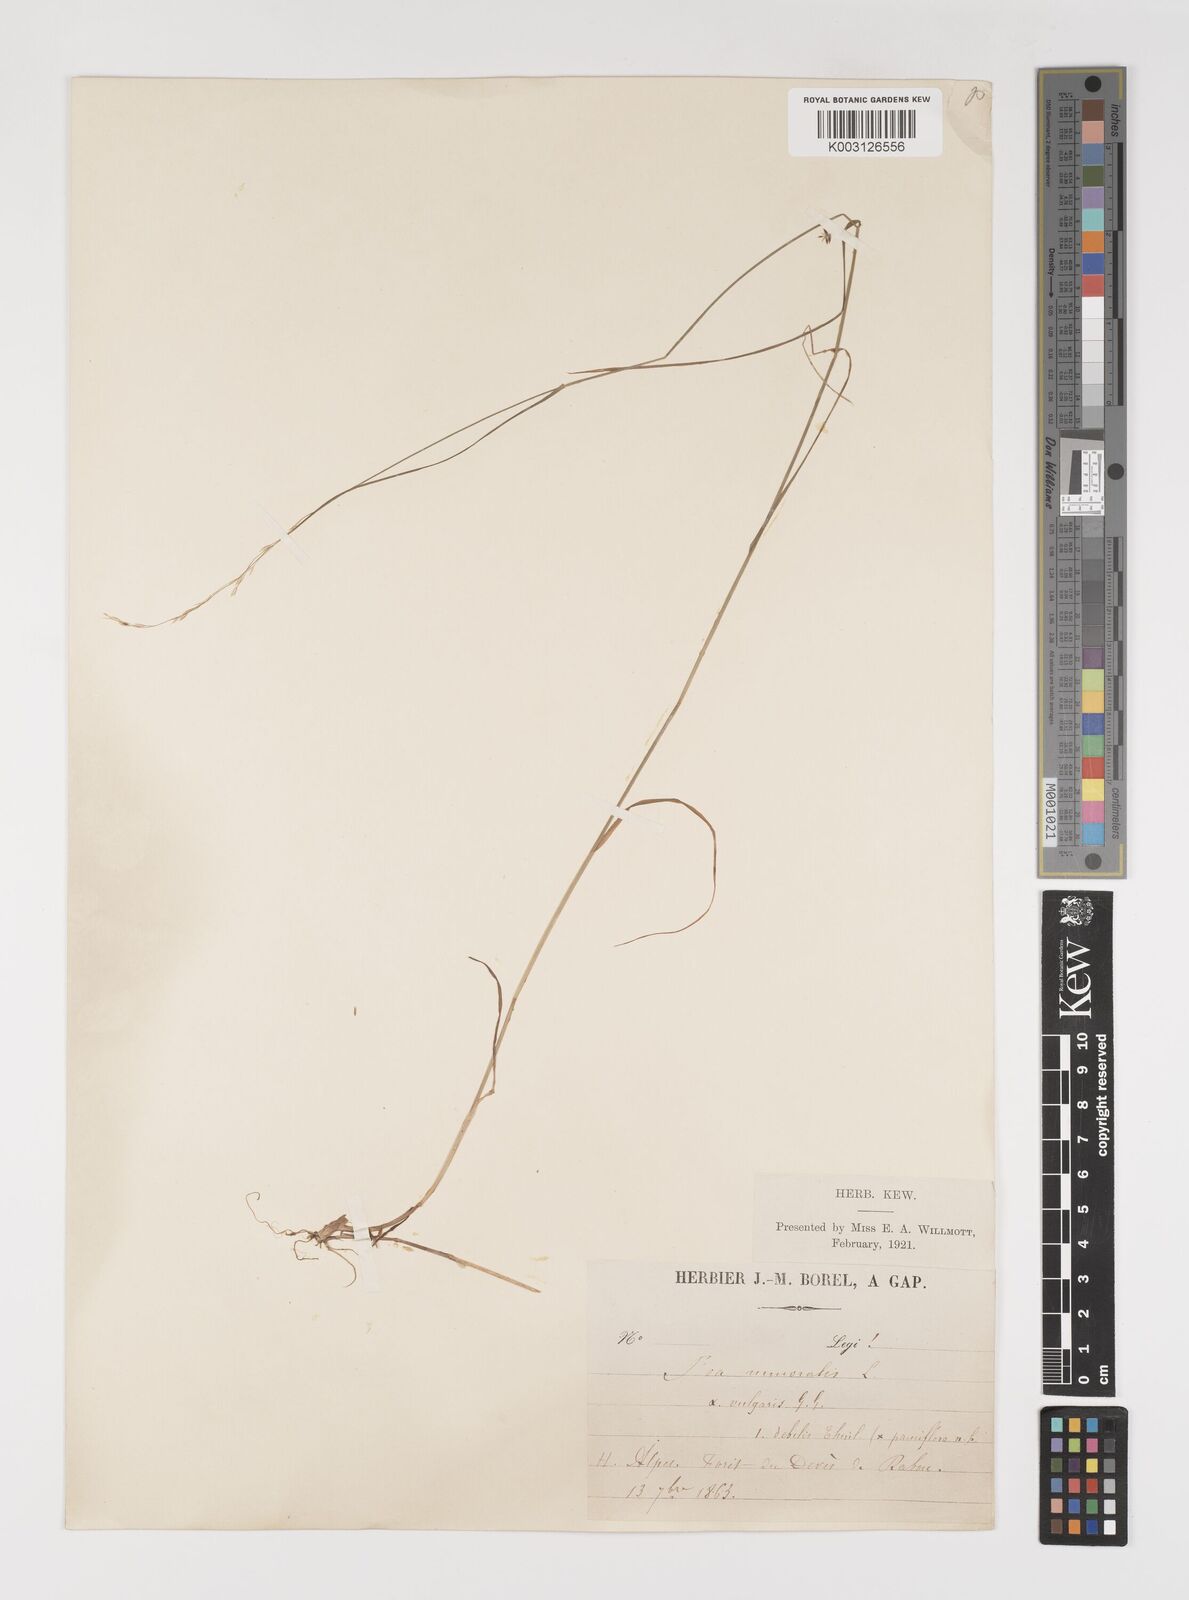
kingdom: Plantae
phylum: Tracheophyta
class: Liliopsida
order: Poales
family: Poaceae
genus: Poa
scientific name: Poa nemoralis
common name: Wood bluegrass
